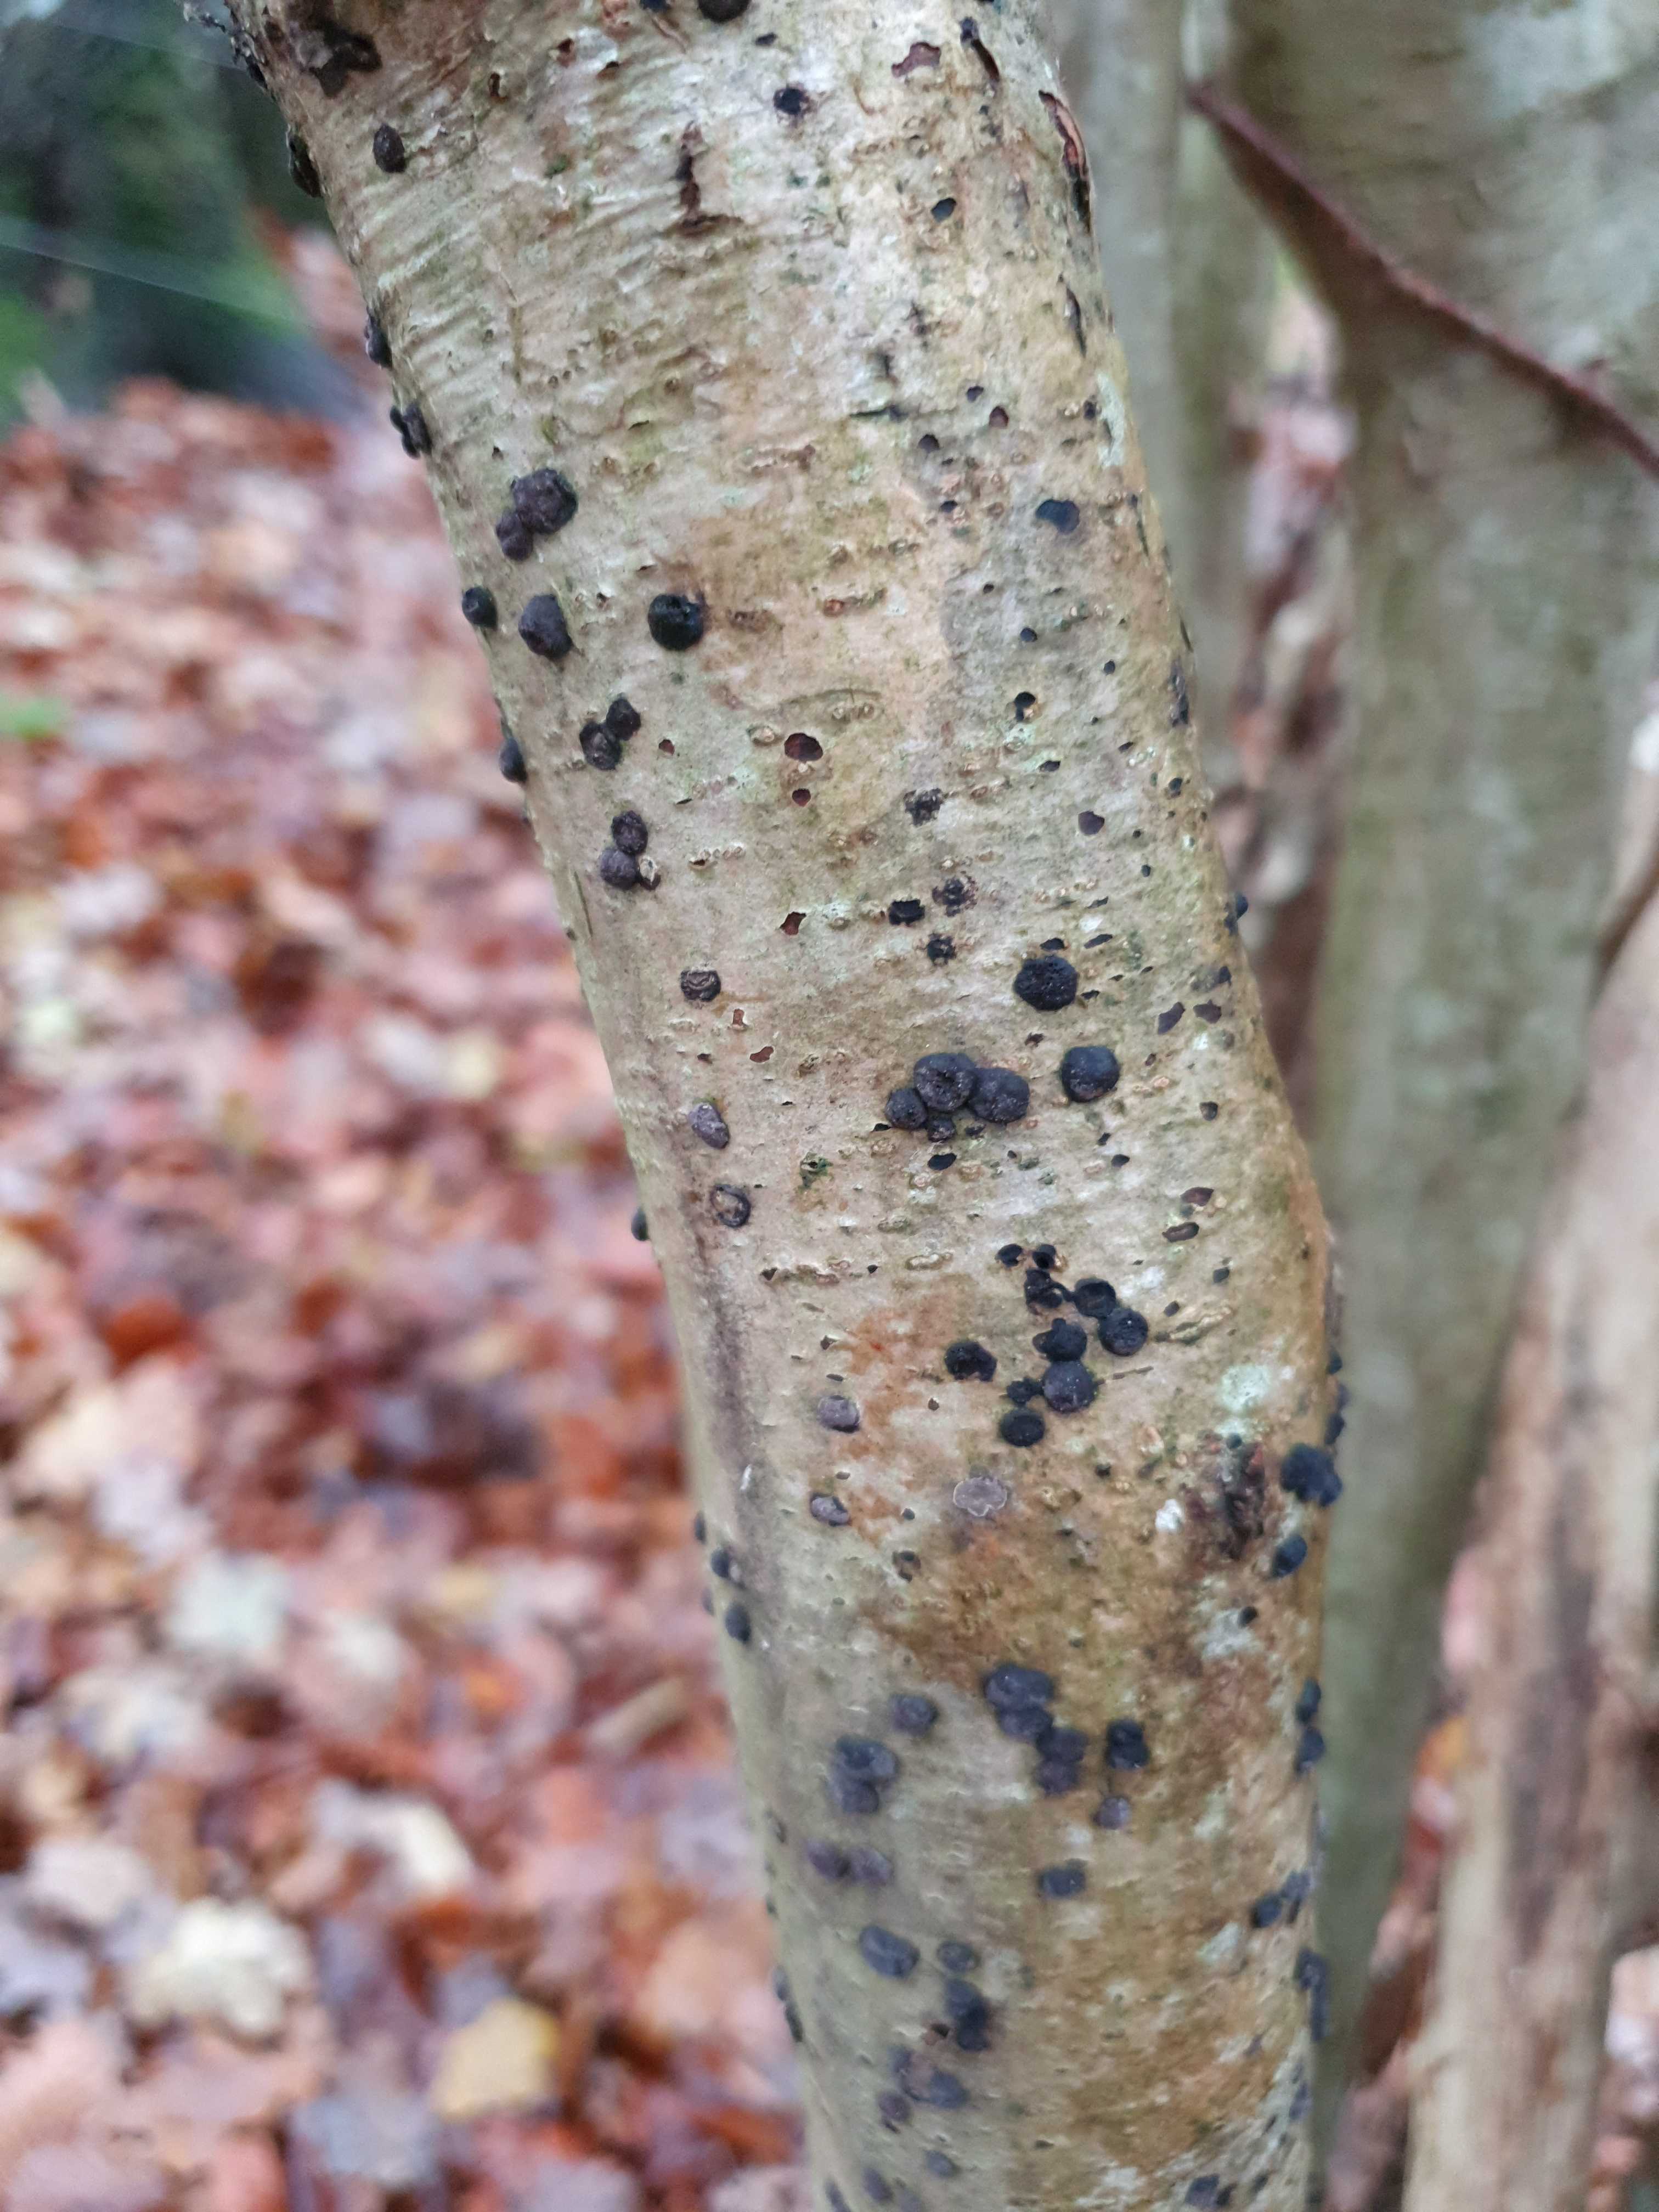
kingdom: Fungi
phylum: Ascomycota
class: Sordariomycetes
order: Xylariales
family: Hypoxylaceae
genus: Hypoxylon
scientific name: Hypoxylon fuscum
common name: kegleformet kulbær
